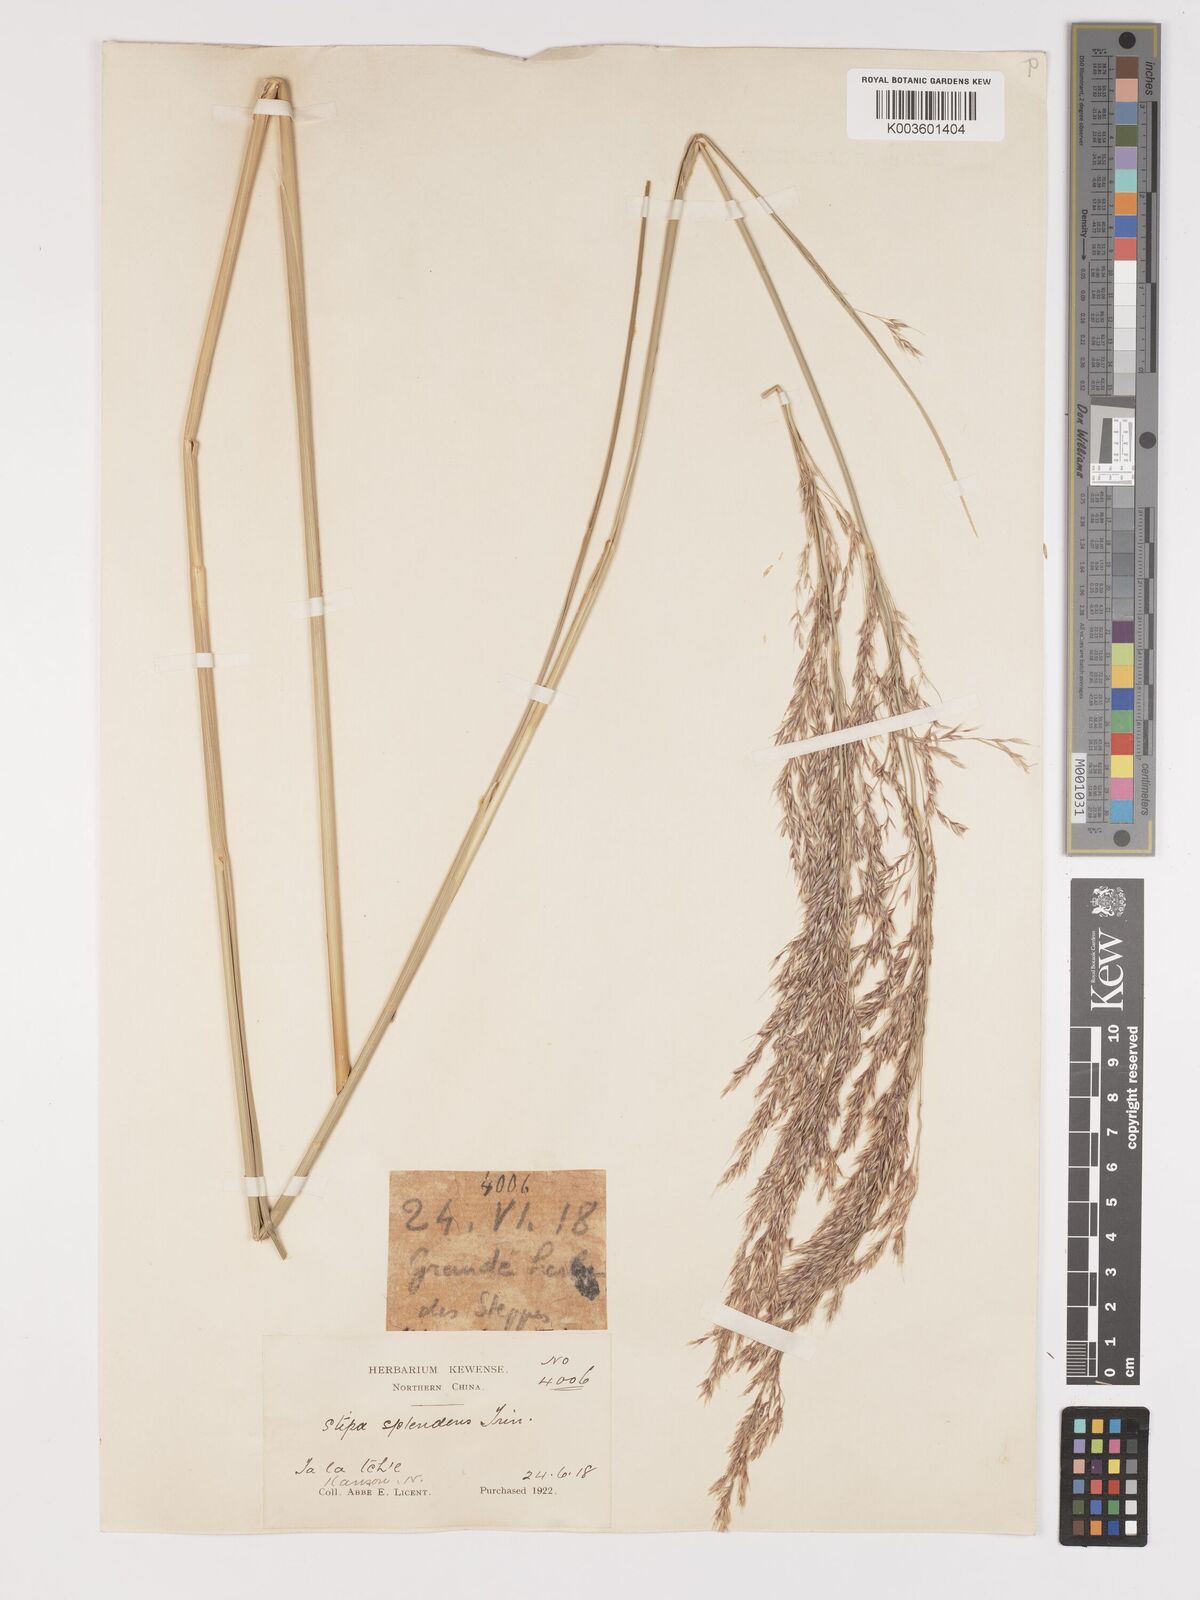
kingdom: Plantae
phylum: Tracheophyta
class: Liliopsida
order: Poales
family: Poaceae
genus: Neotrinia
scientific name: Neotrinia splendens
